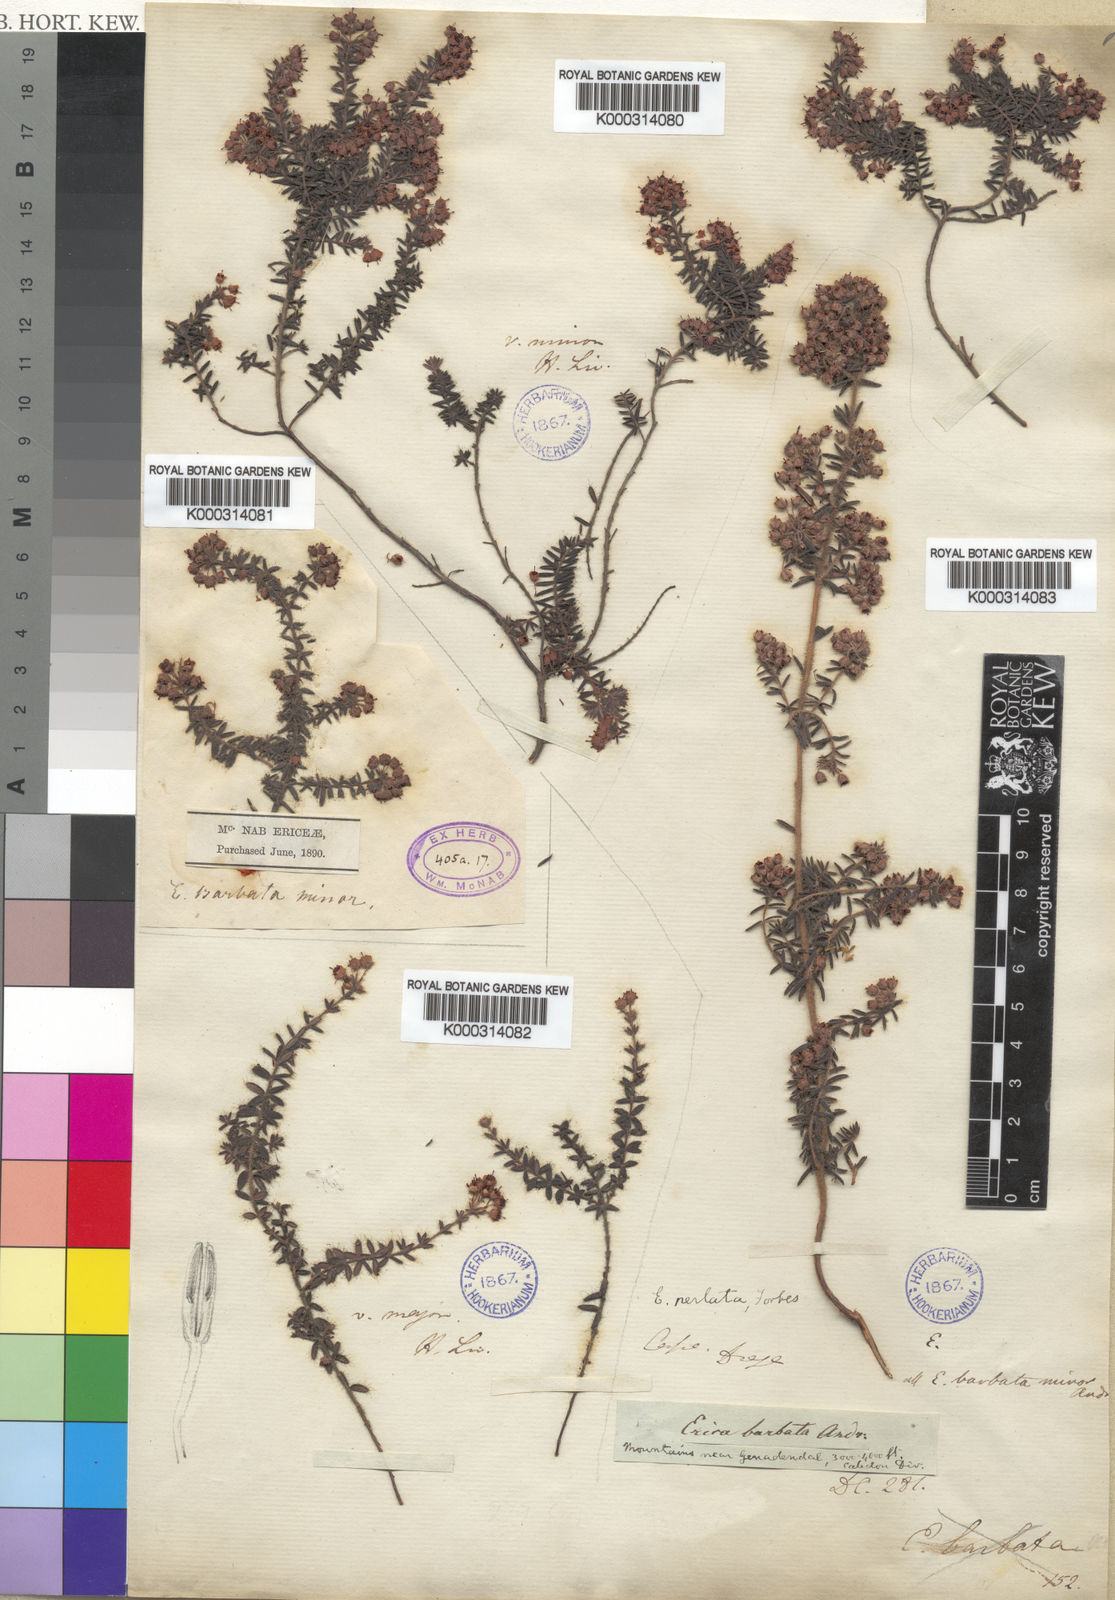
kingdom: Plantae
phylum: Tracheophyta
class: Magnoliopsida
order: Ericales
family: Ericaceae
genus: Erica
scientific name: Erica
